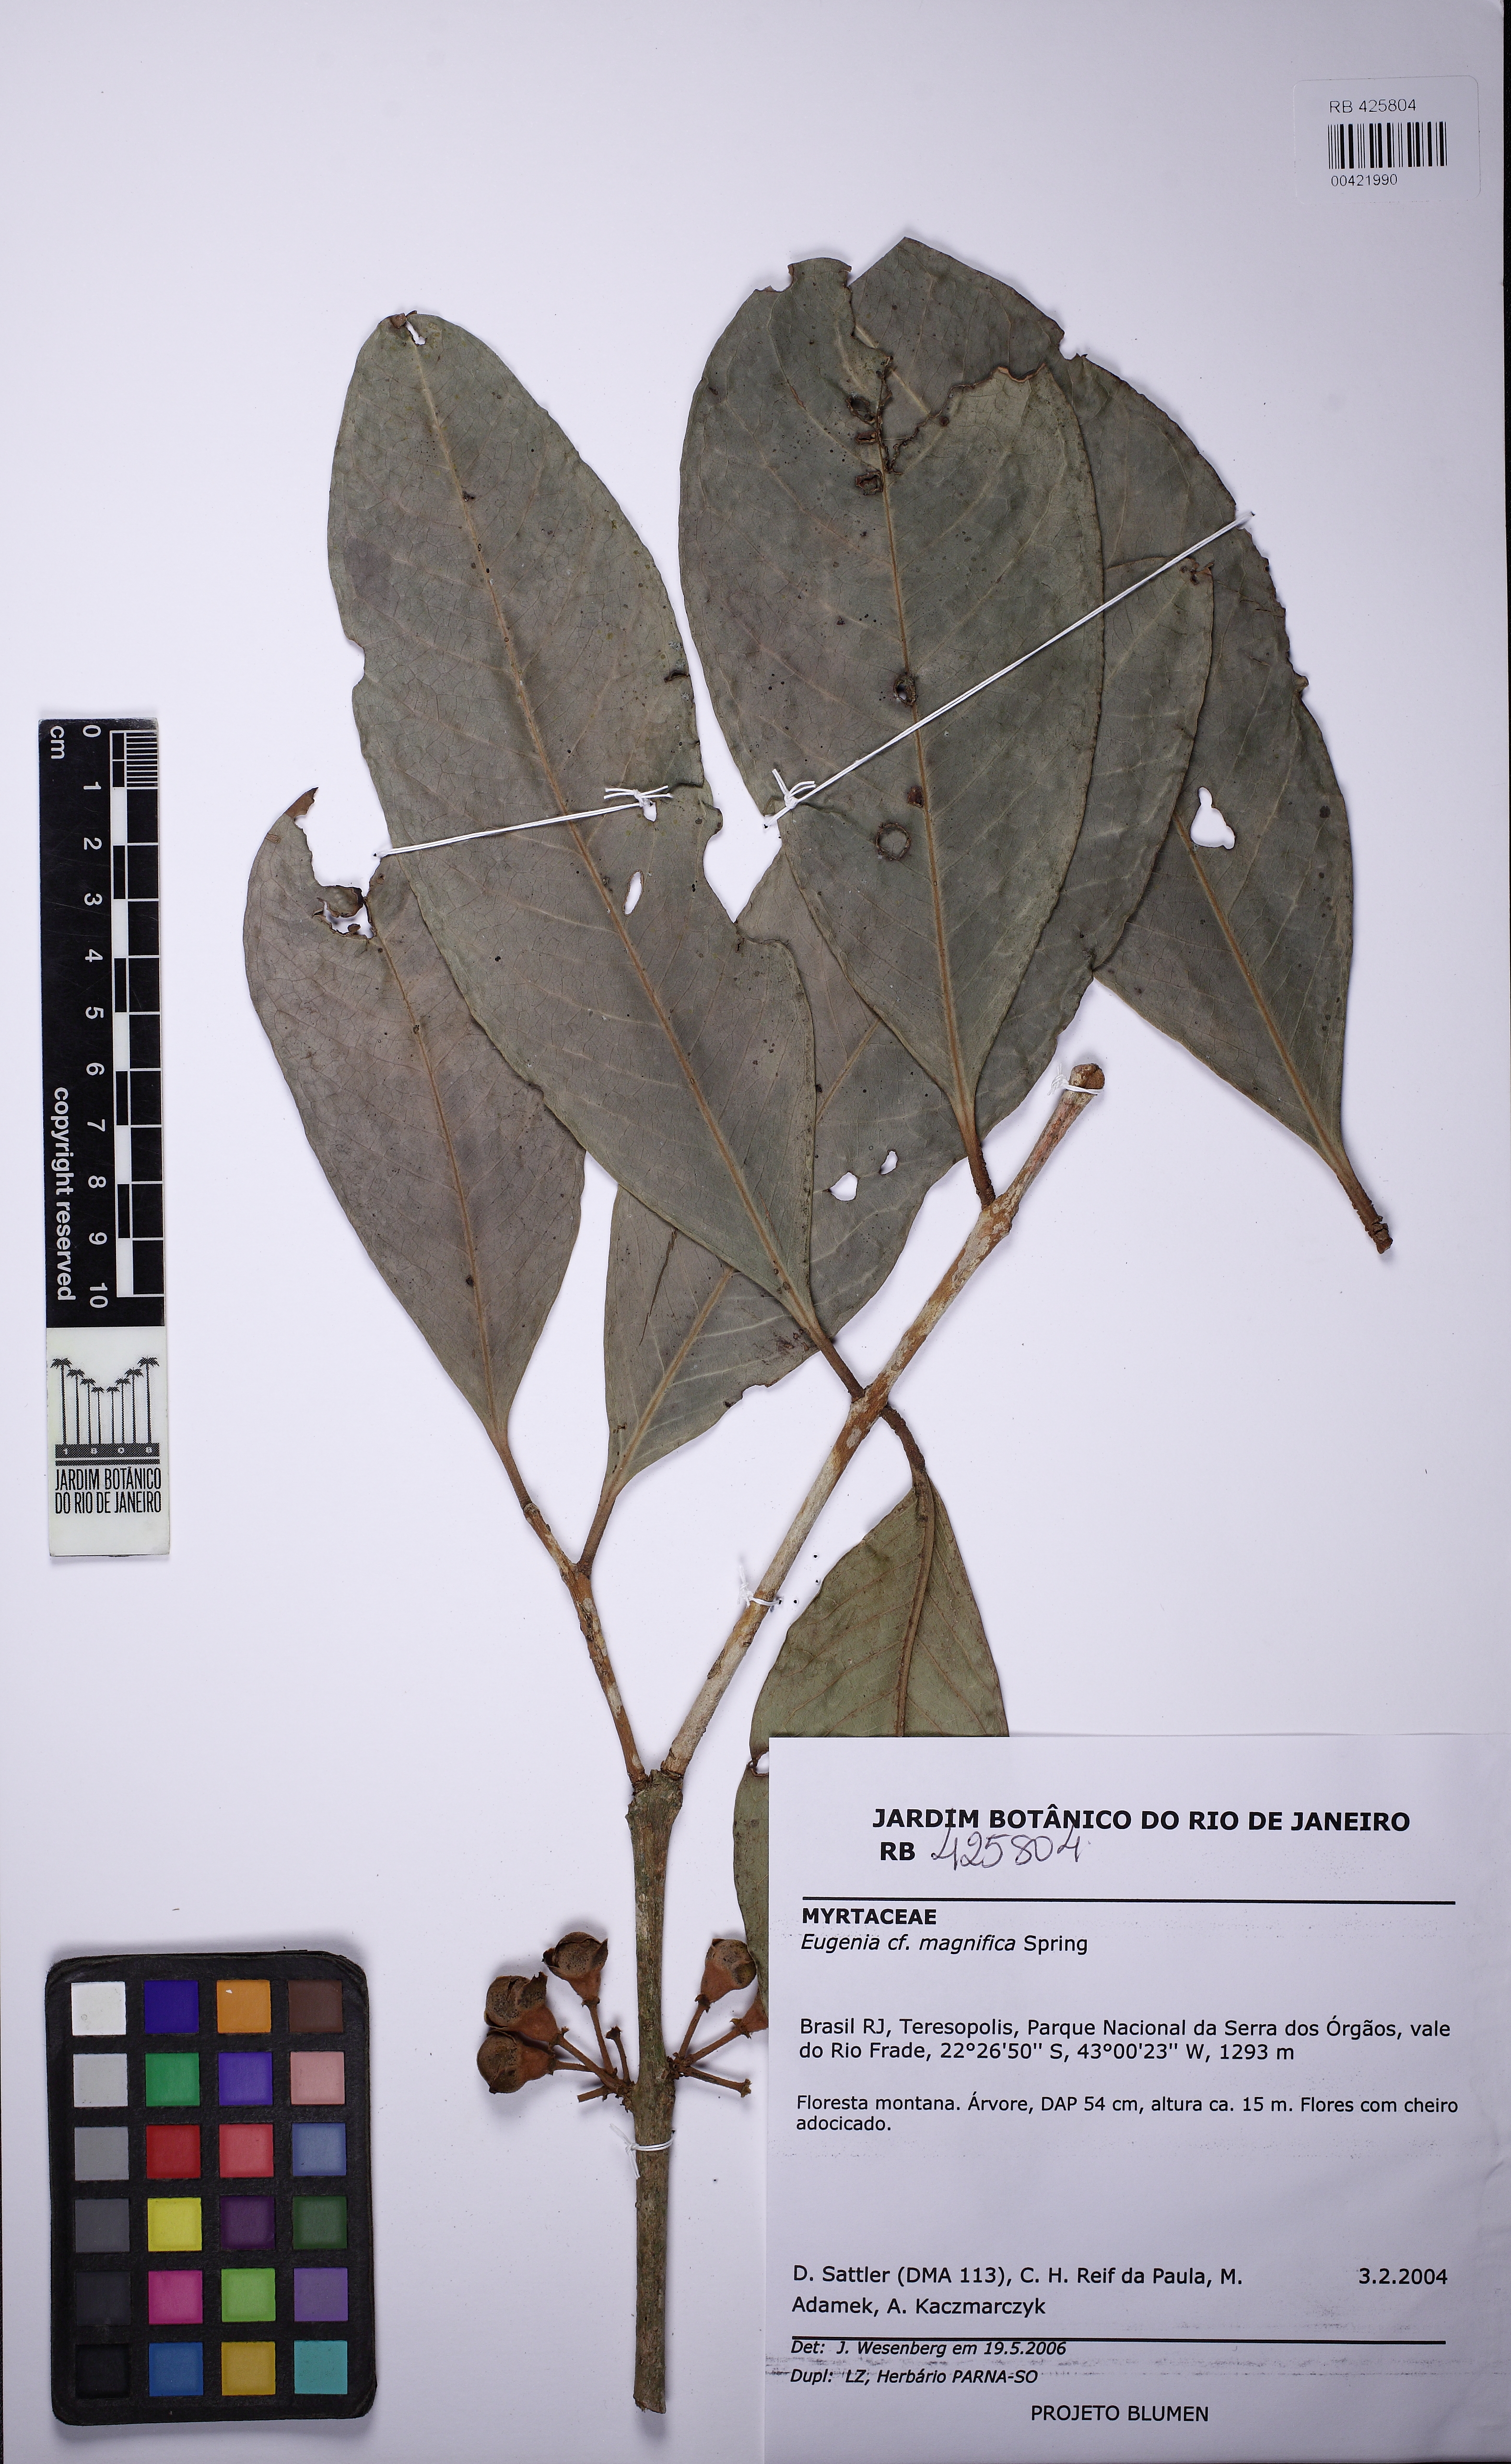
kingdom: Plantae
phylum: Tracheophyta
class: Magnoliopsida
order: Myrtales
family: Myrtaceae
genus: Eugenia
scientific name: Eugenia umbrosa
